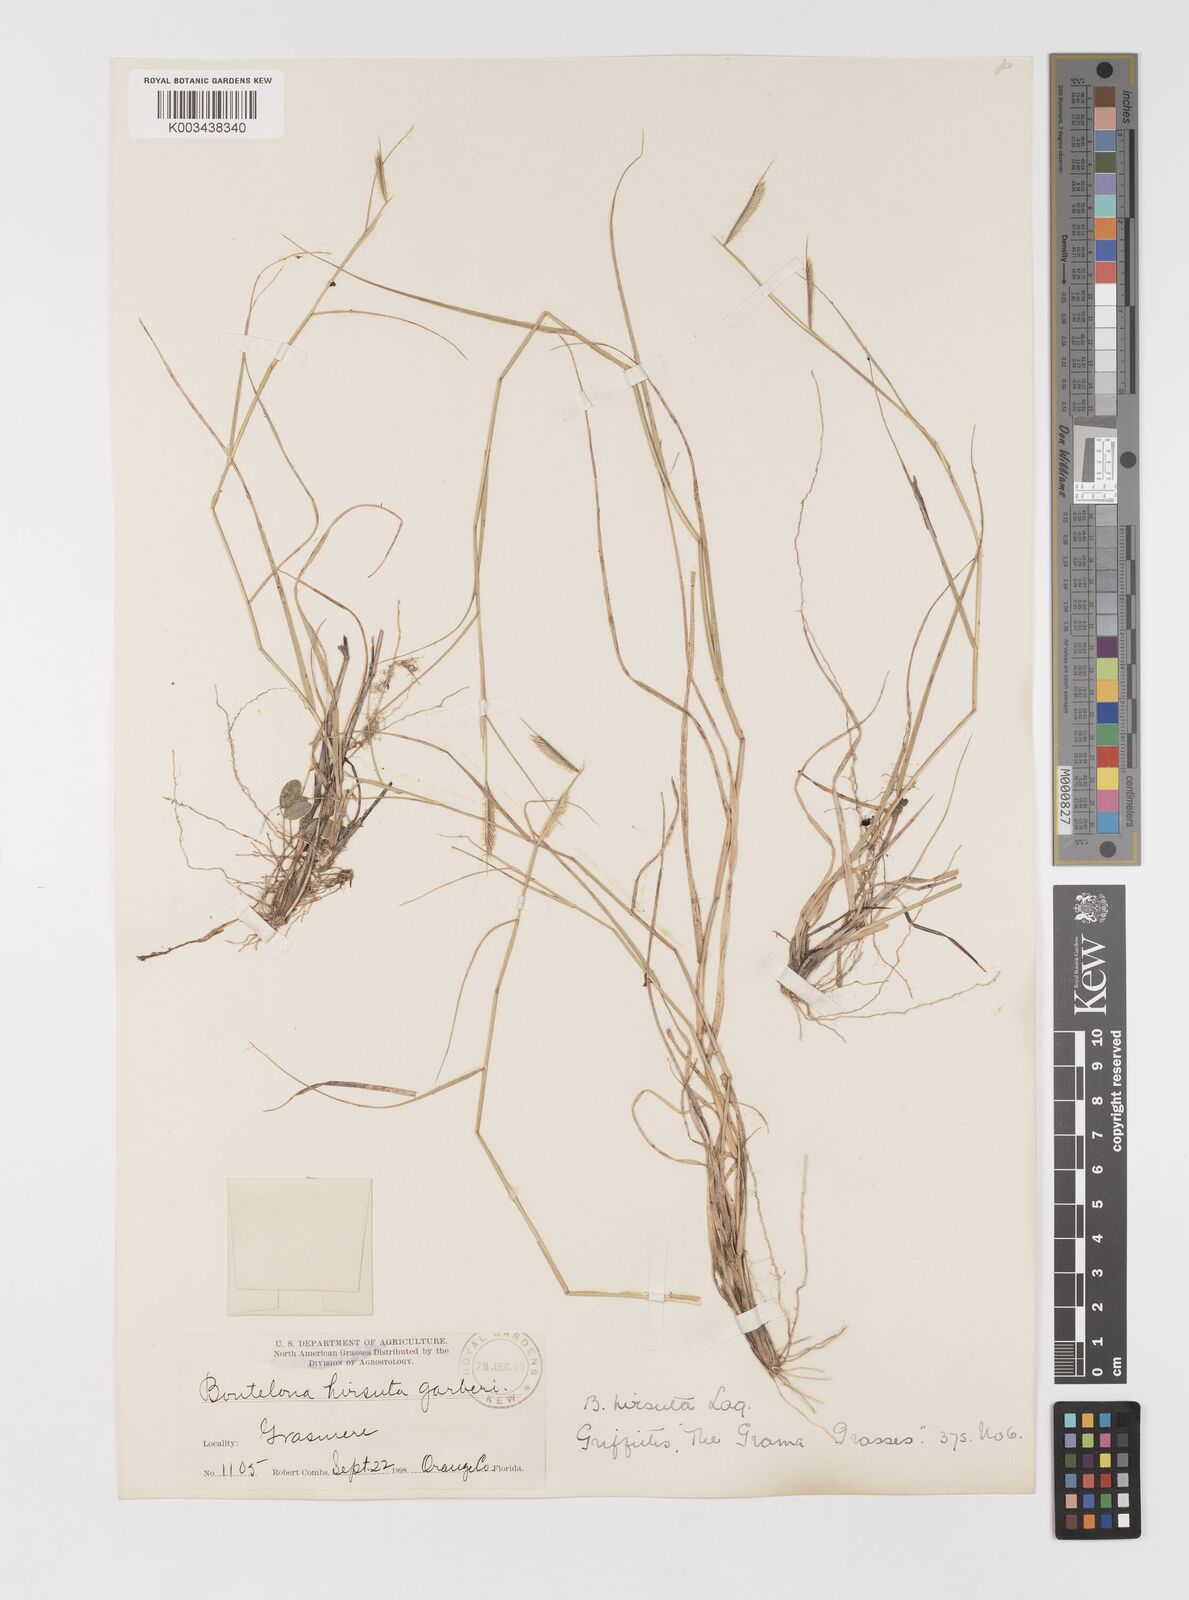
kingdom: Plantae
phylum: Tracheophyta
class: Liliopsida
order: Poales
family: Poaceae
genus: Bouteloua
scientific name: Bouteloua hirsuta
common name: Hairy grama
